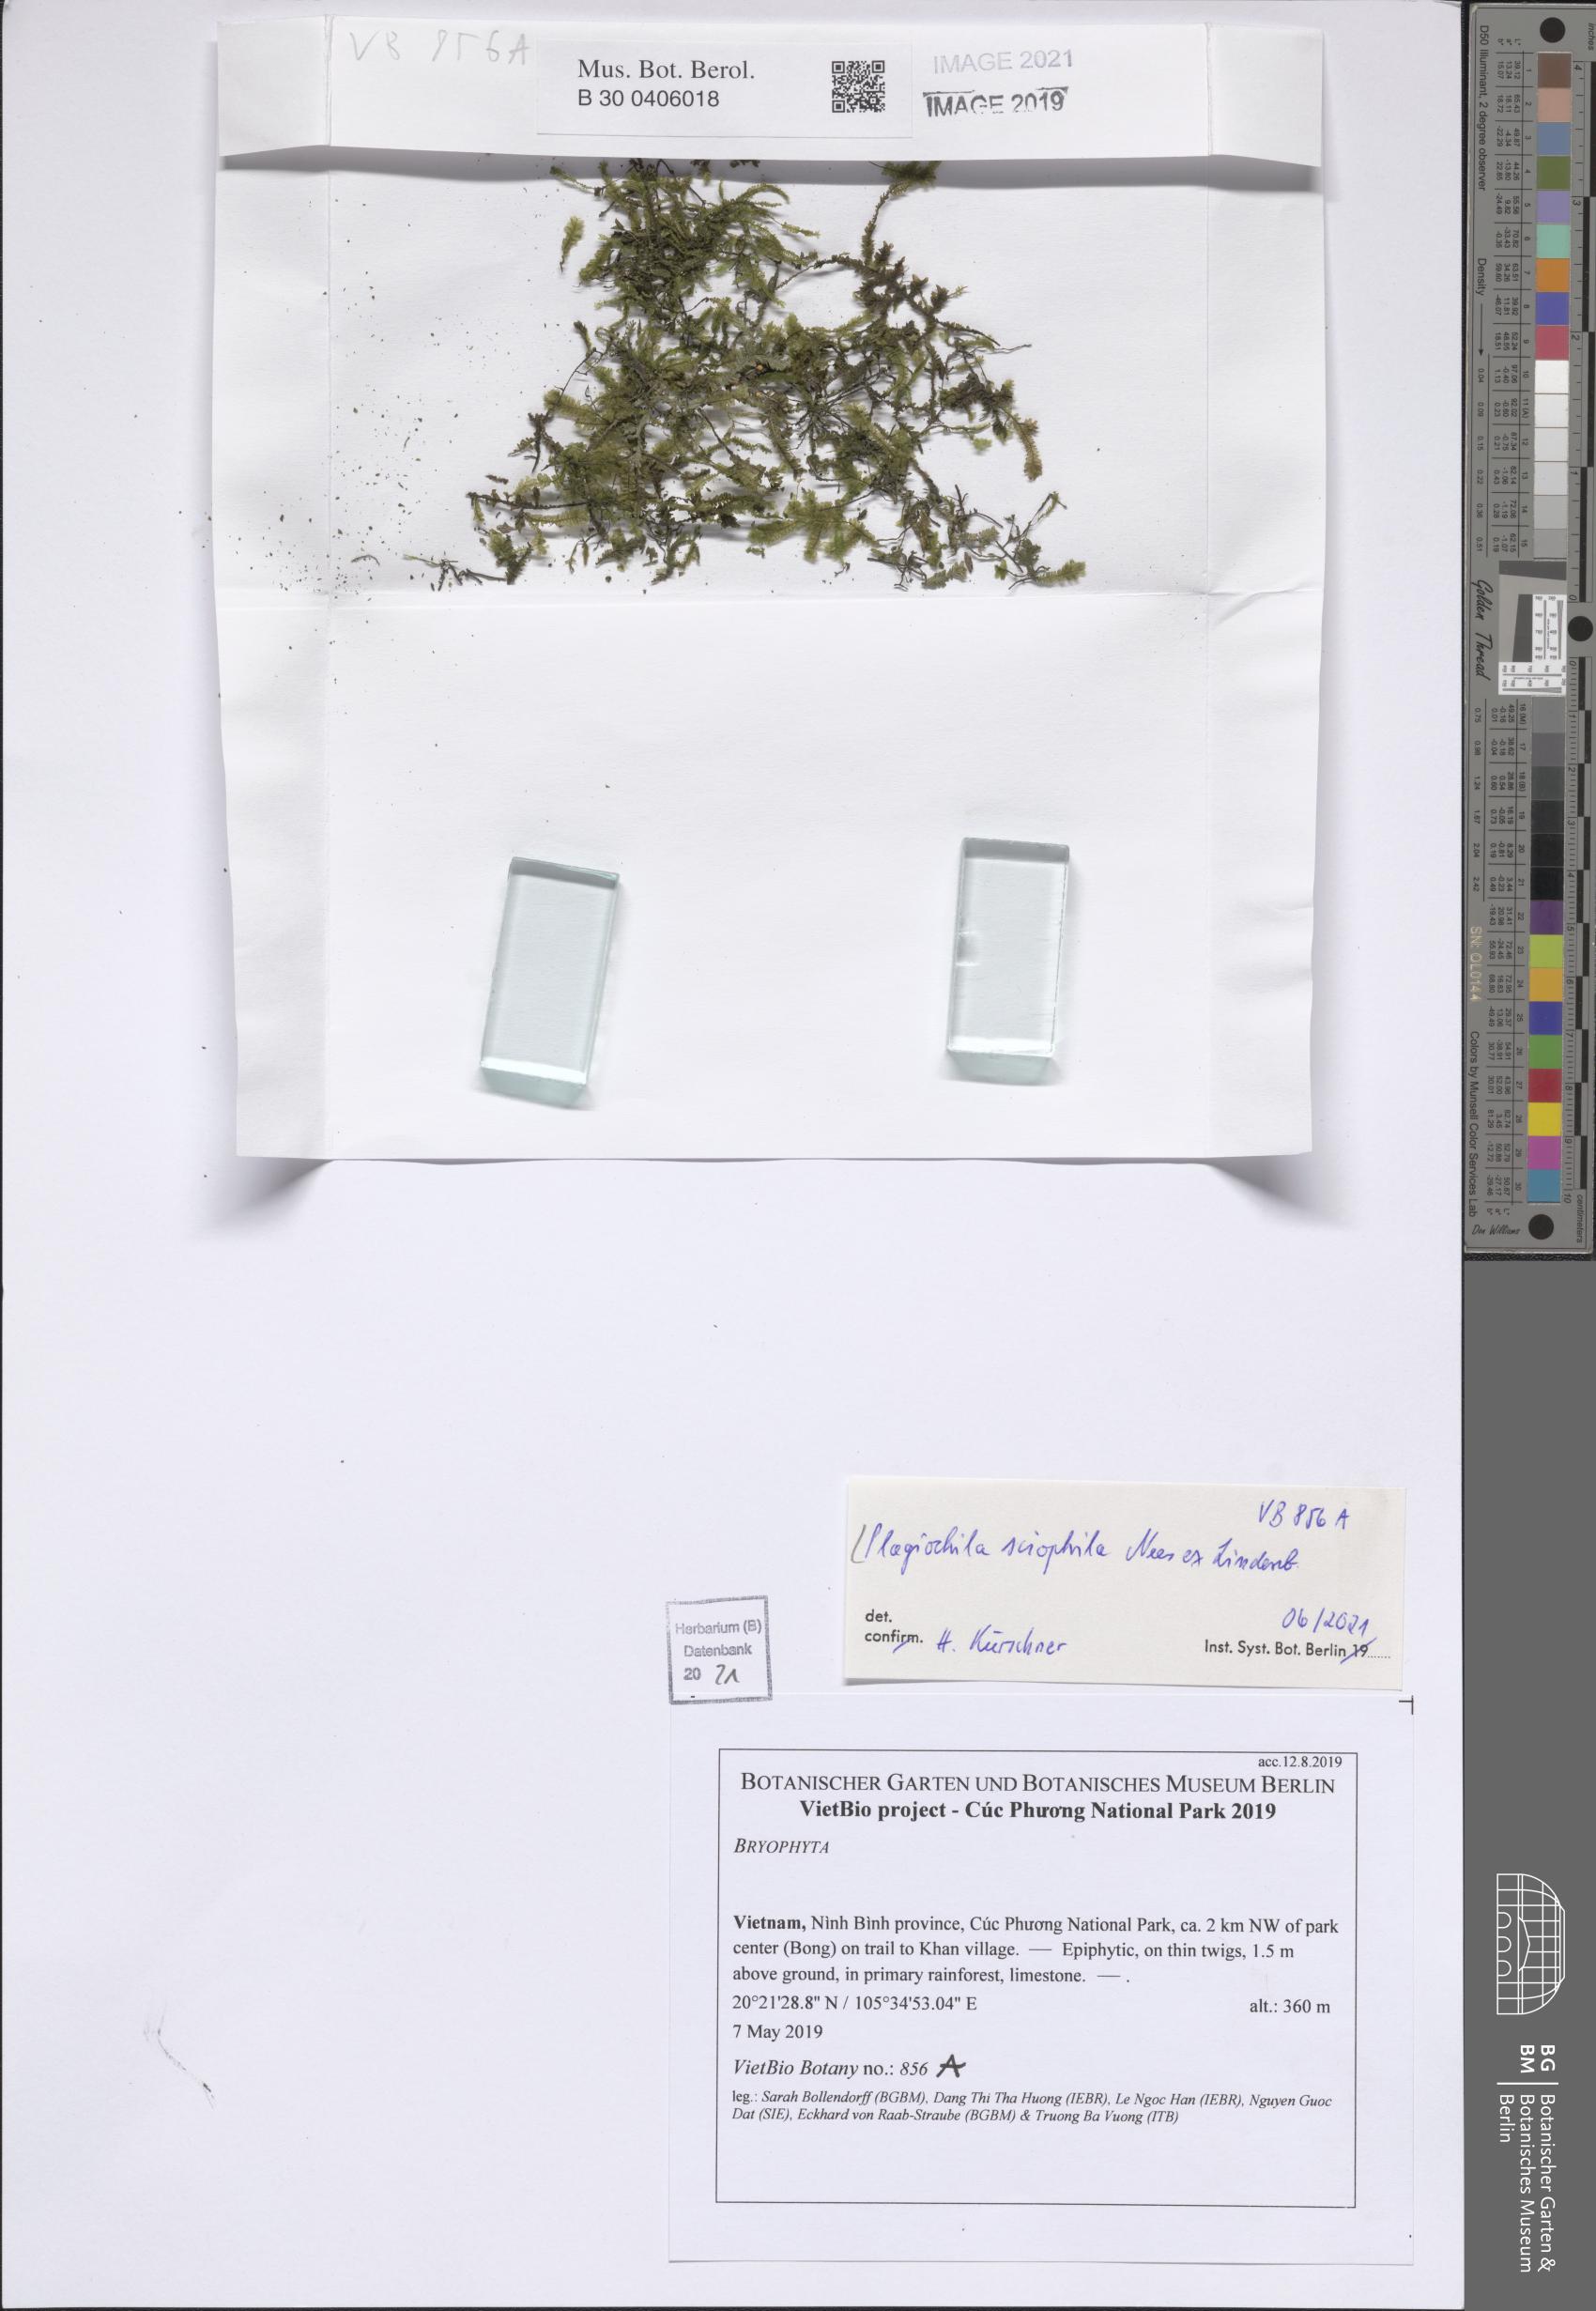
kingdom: Plantae
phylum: Marchantiophyta
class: Jungermanniopsida
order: Jungermanniales
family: Plagiochilaceae
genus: Plagiochila
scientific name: Plagiochila sciophila
